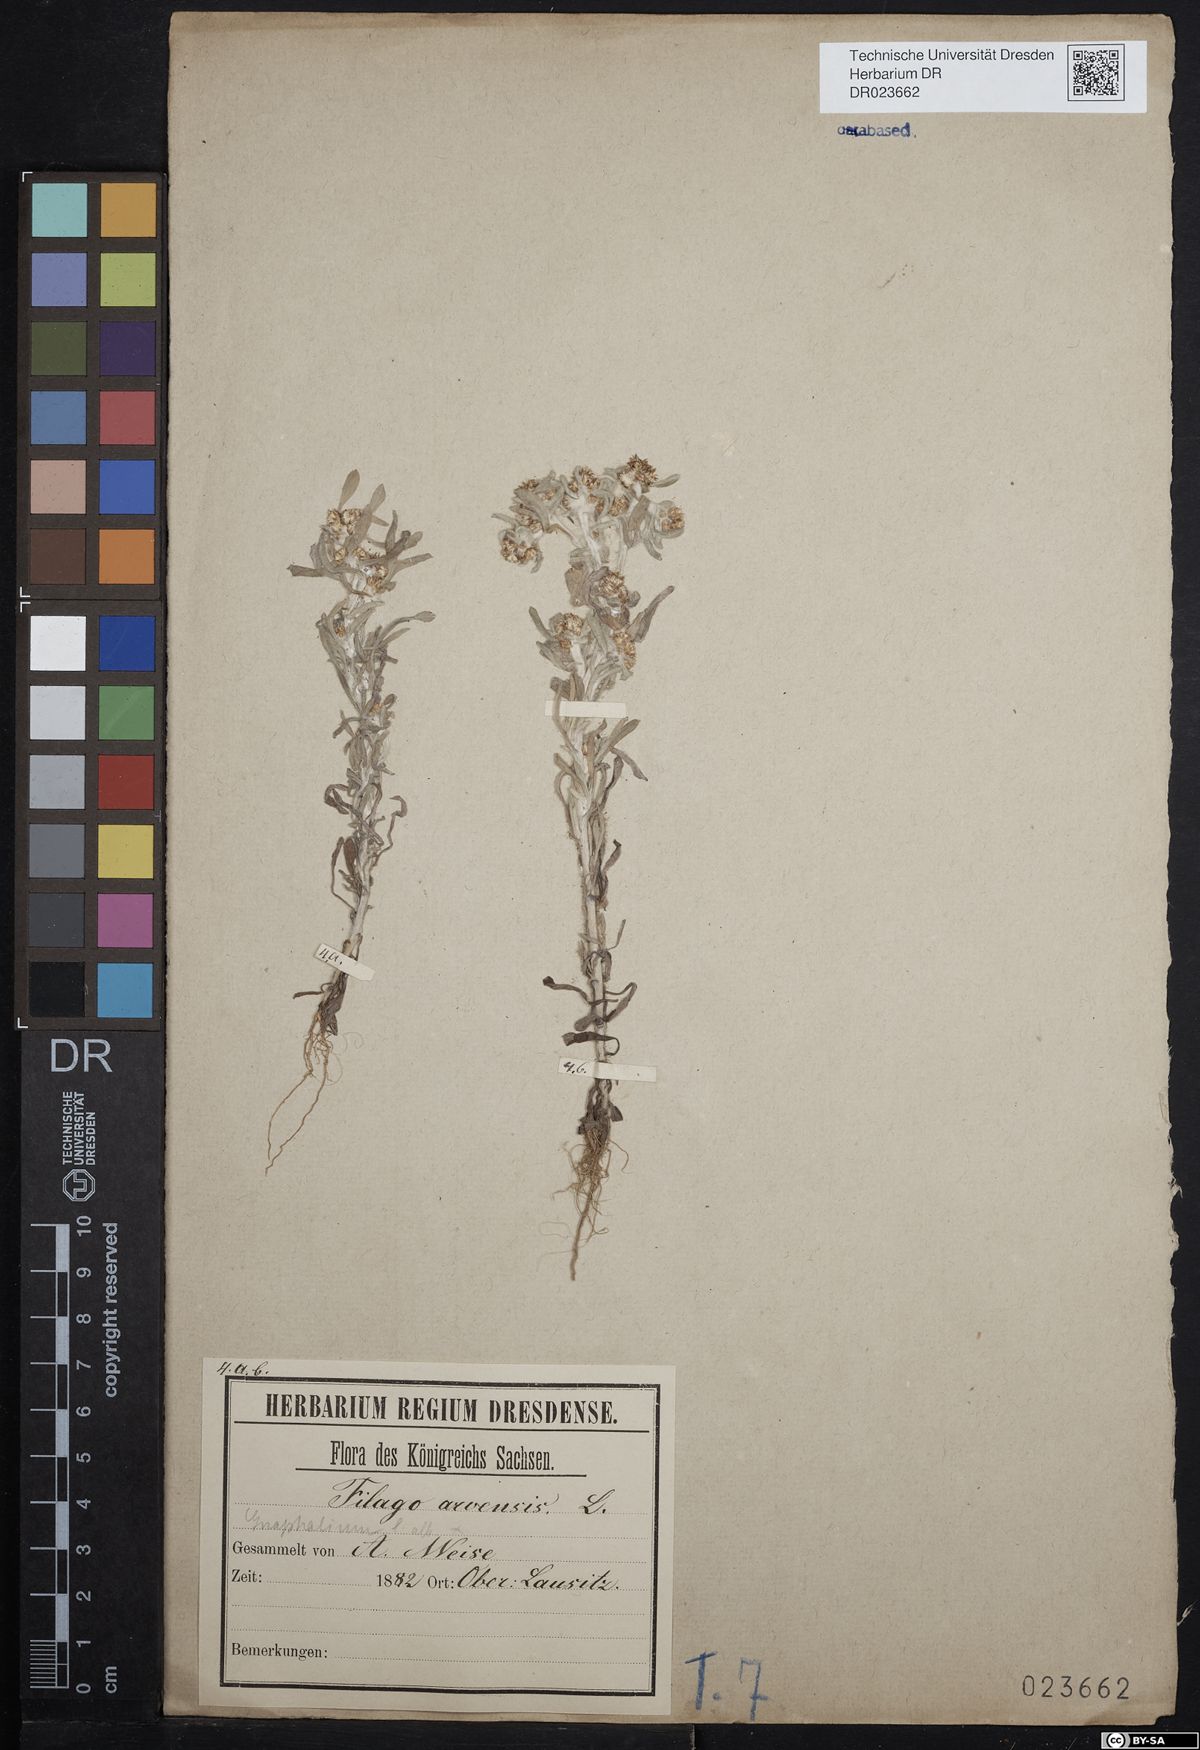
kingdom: Plantae
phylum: Tracheophyta
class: Magnoliopsida
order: Asterales
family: Asteraceae
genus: Gnaphalium
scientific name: Gnaphalium uliginosum
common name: Marsh cudweed
